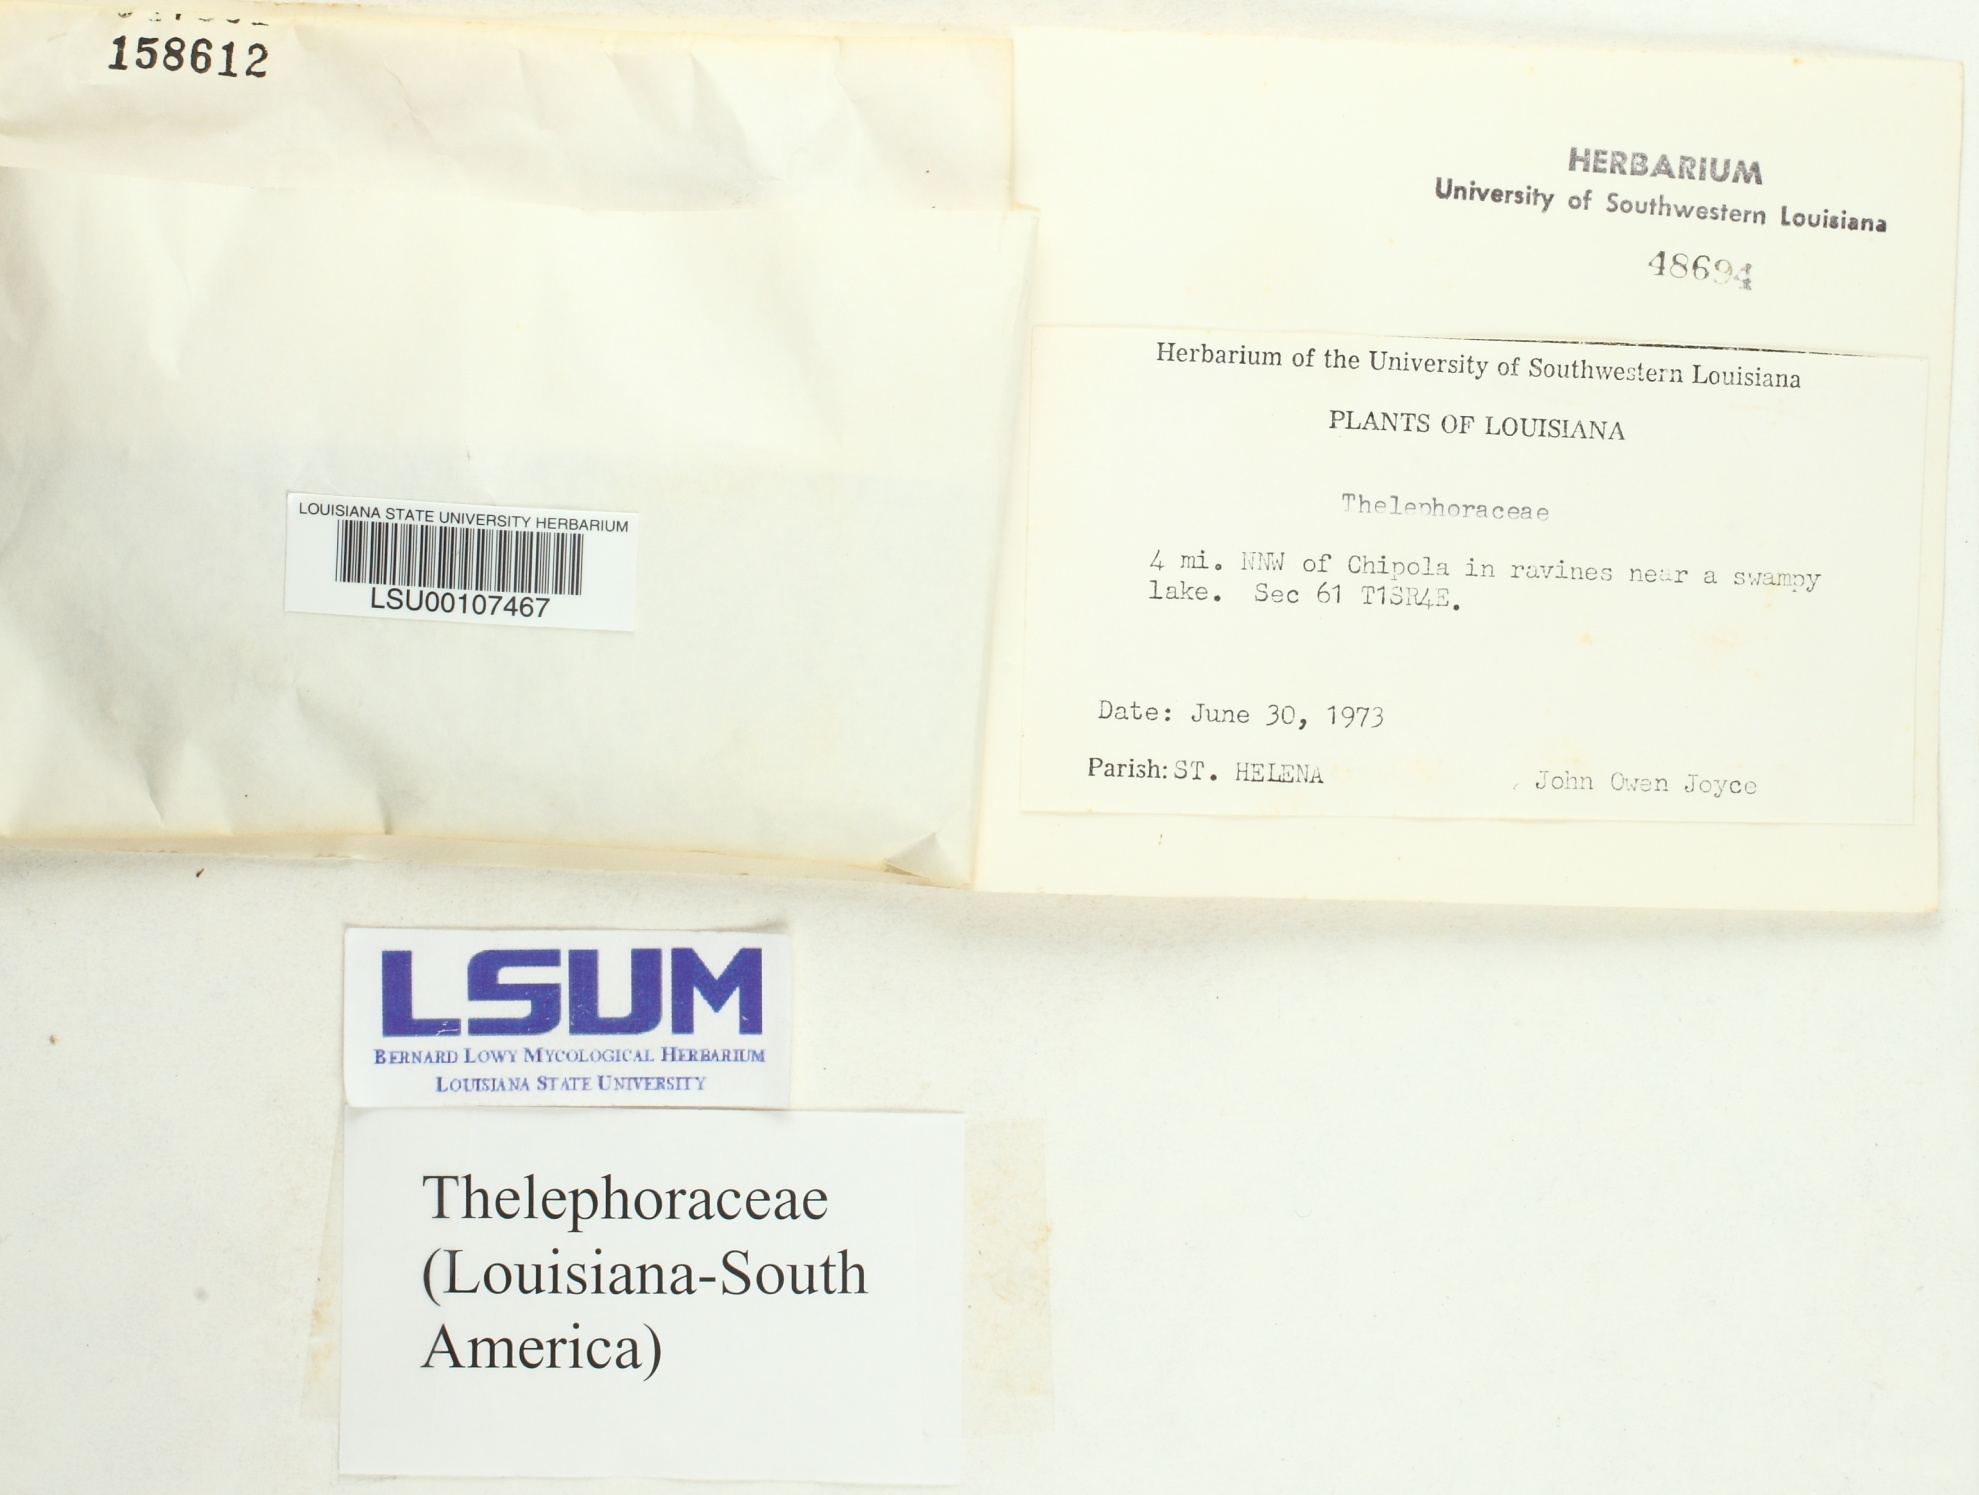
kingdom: Fungi
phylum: Basidiomycota
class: Agaricomycetes
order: Thelephorales
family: Thelephoraceae
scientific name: Thelephoraceae
